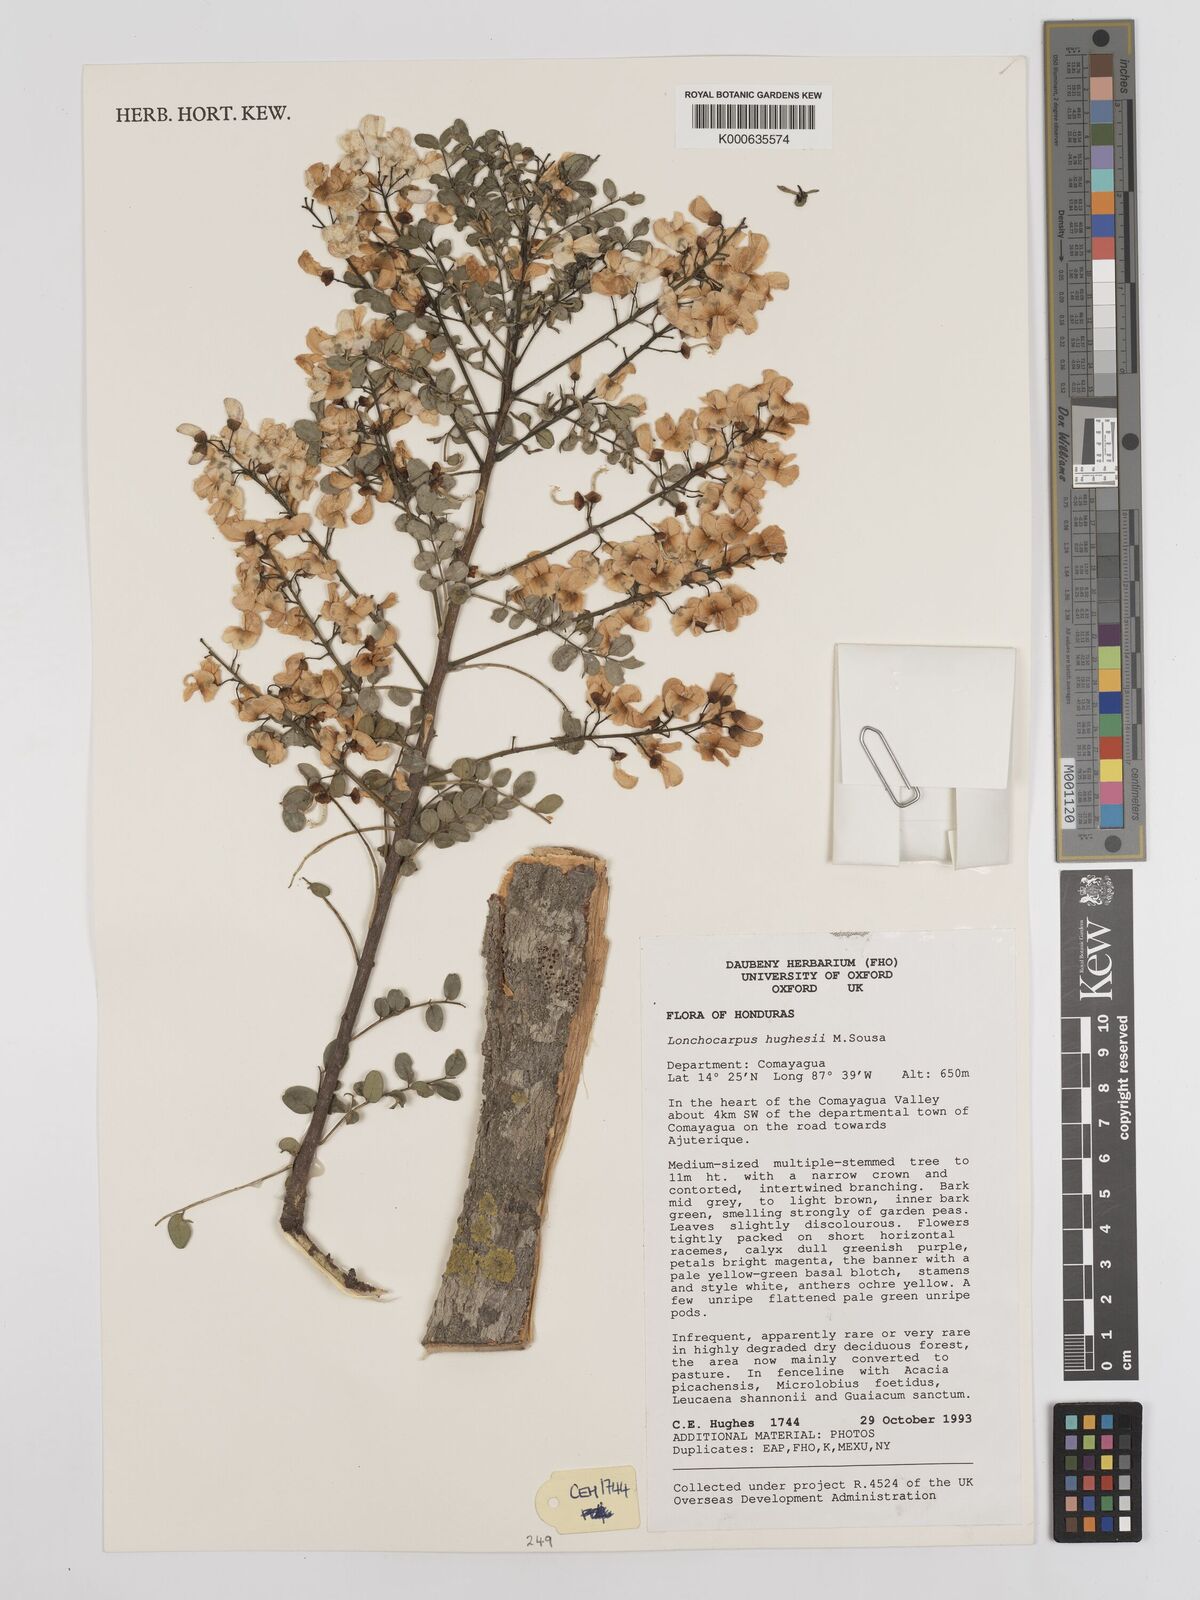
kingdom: Plantae
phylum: Tracheophyta
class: Magnoliopsida
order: Fabales
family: Fabaceae
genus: Lonchocarpus
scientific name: Lonchocarpus hughesii
